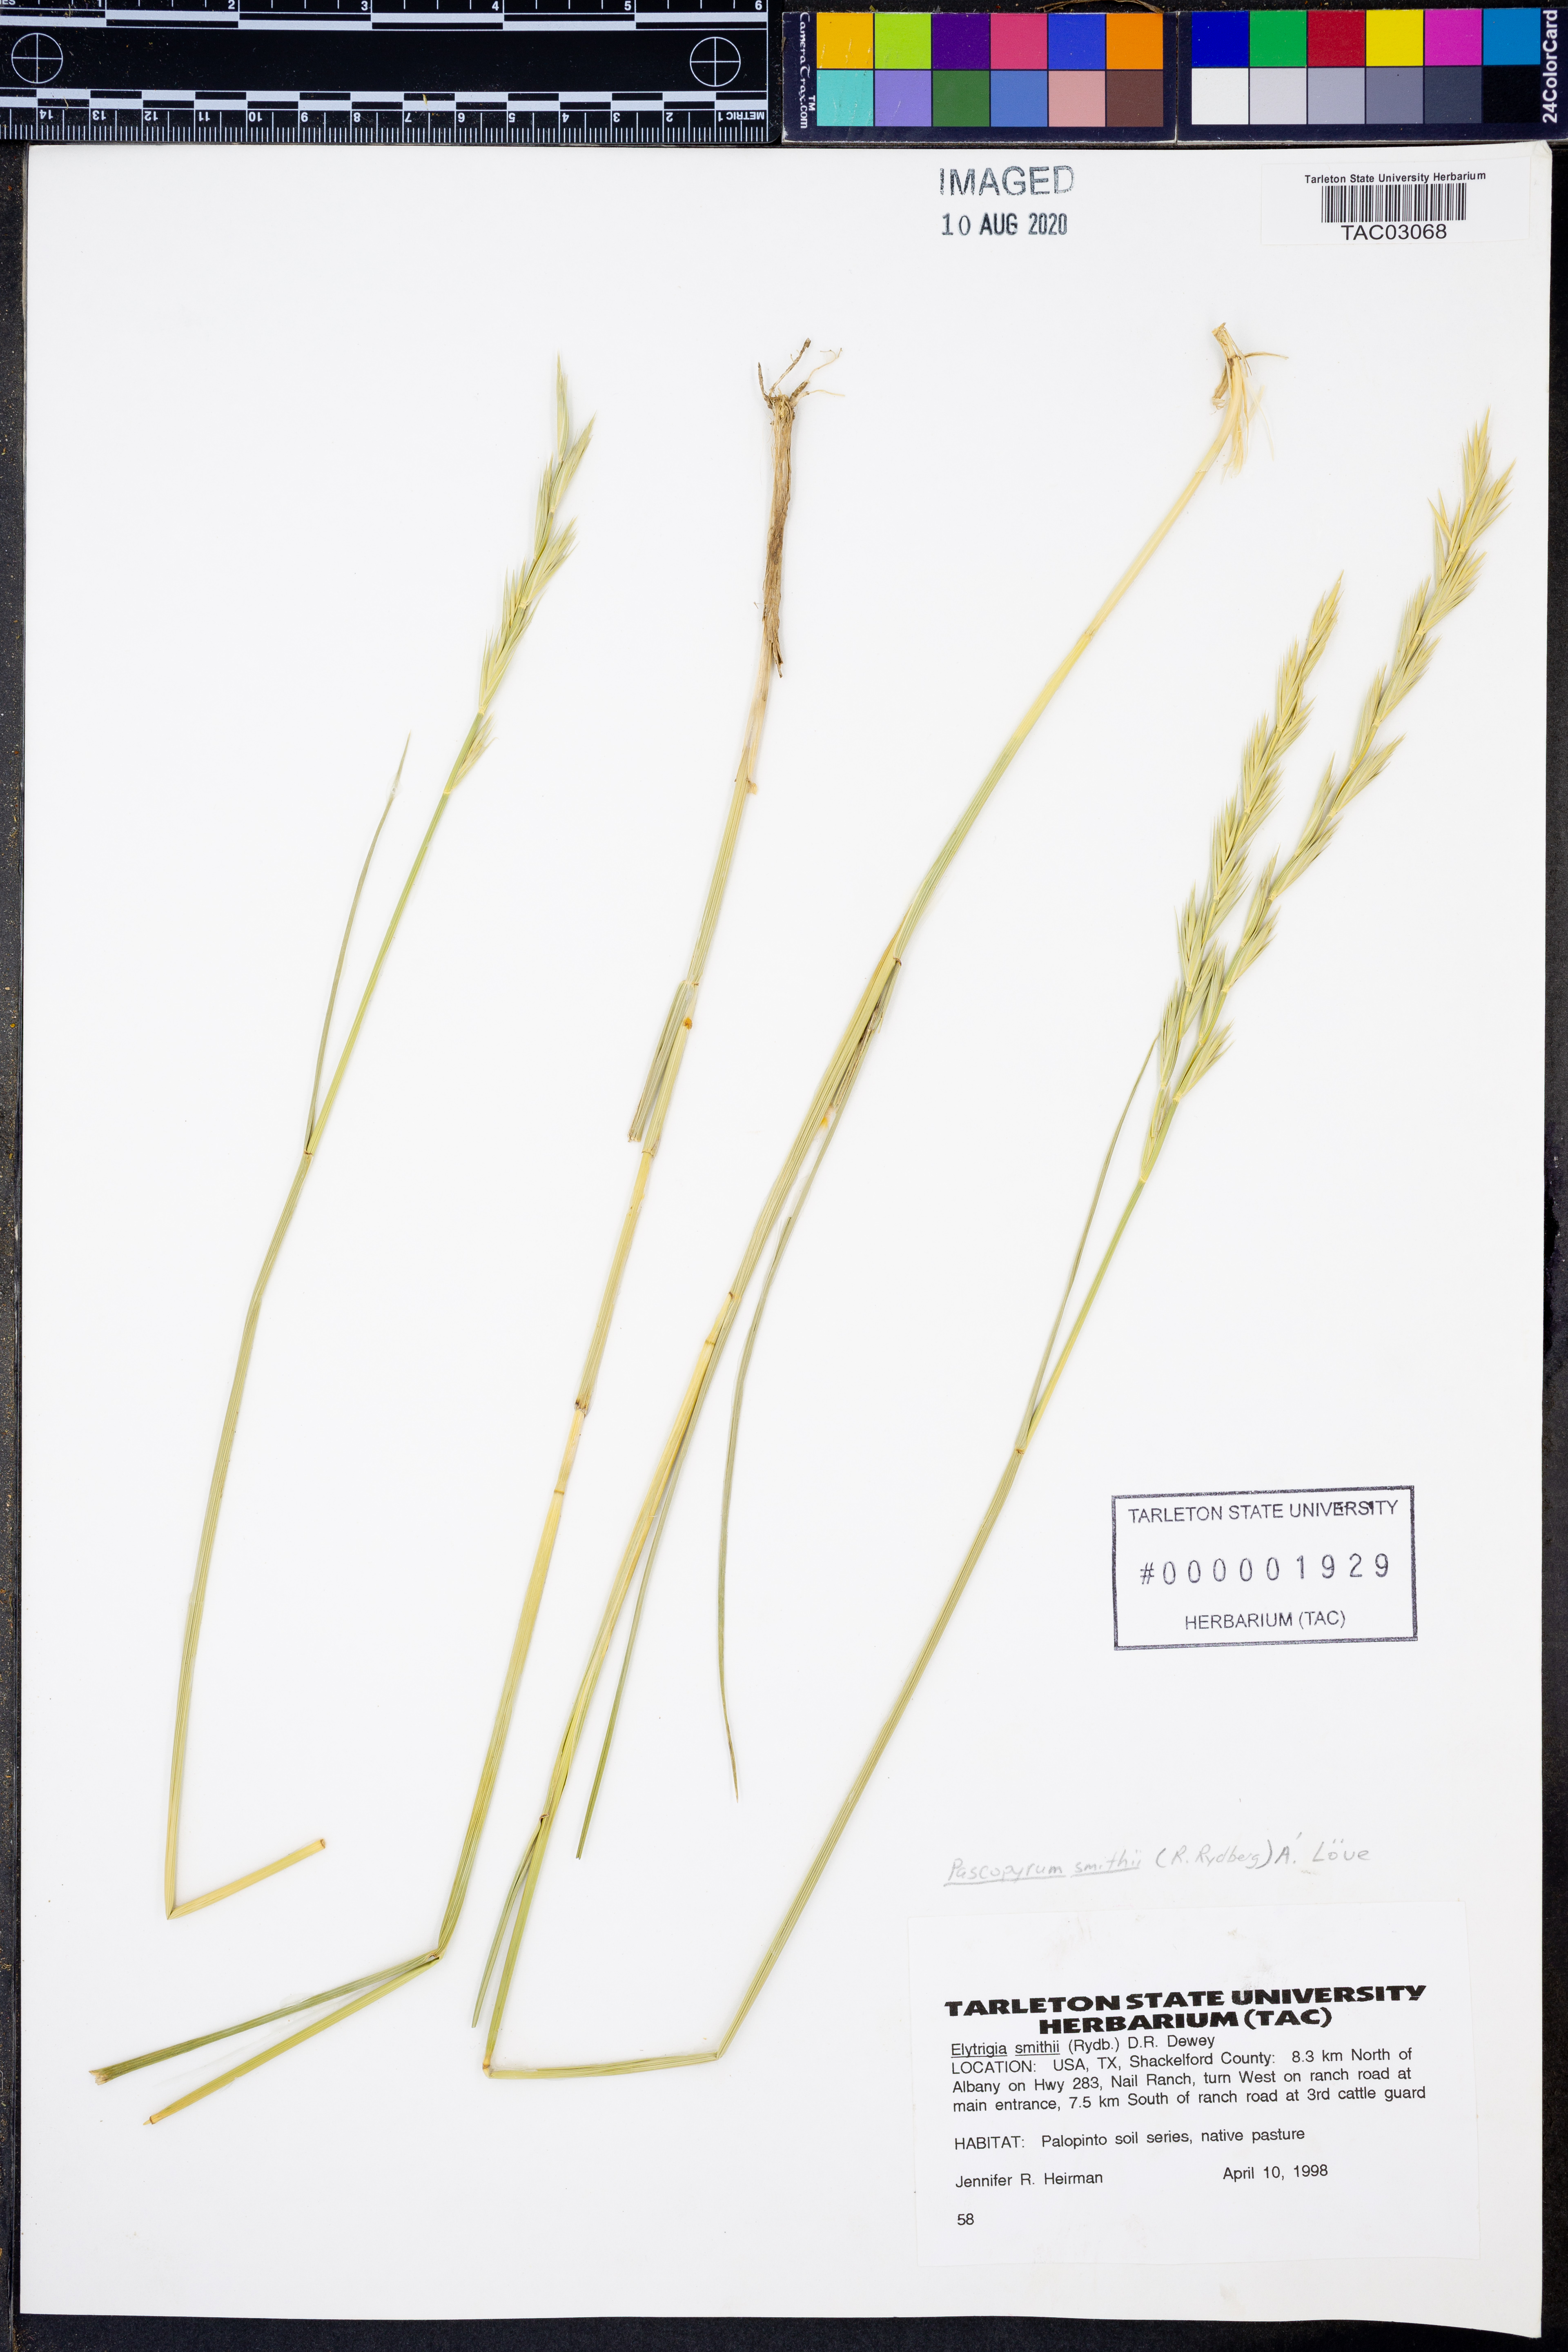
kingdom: Plantae
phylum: Tracheophyta
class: Liliopsida
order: Poales
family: Poaceae
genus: Elymus
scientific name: Elymus smithii
